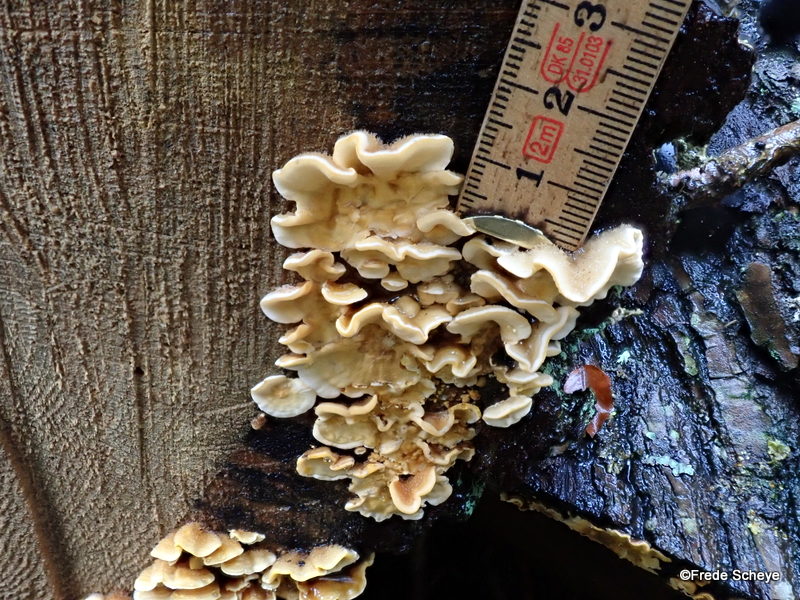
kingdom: Fungi
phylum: Basidiomycota
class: Agaricomycetes
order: Russulales
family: Stereaceae
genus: Stereum
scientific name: Stereum hirsutum
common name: håret lædersvamp
